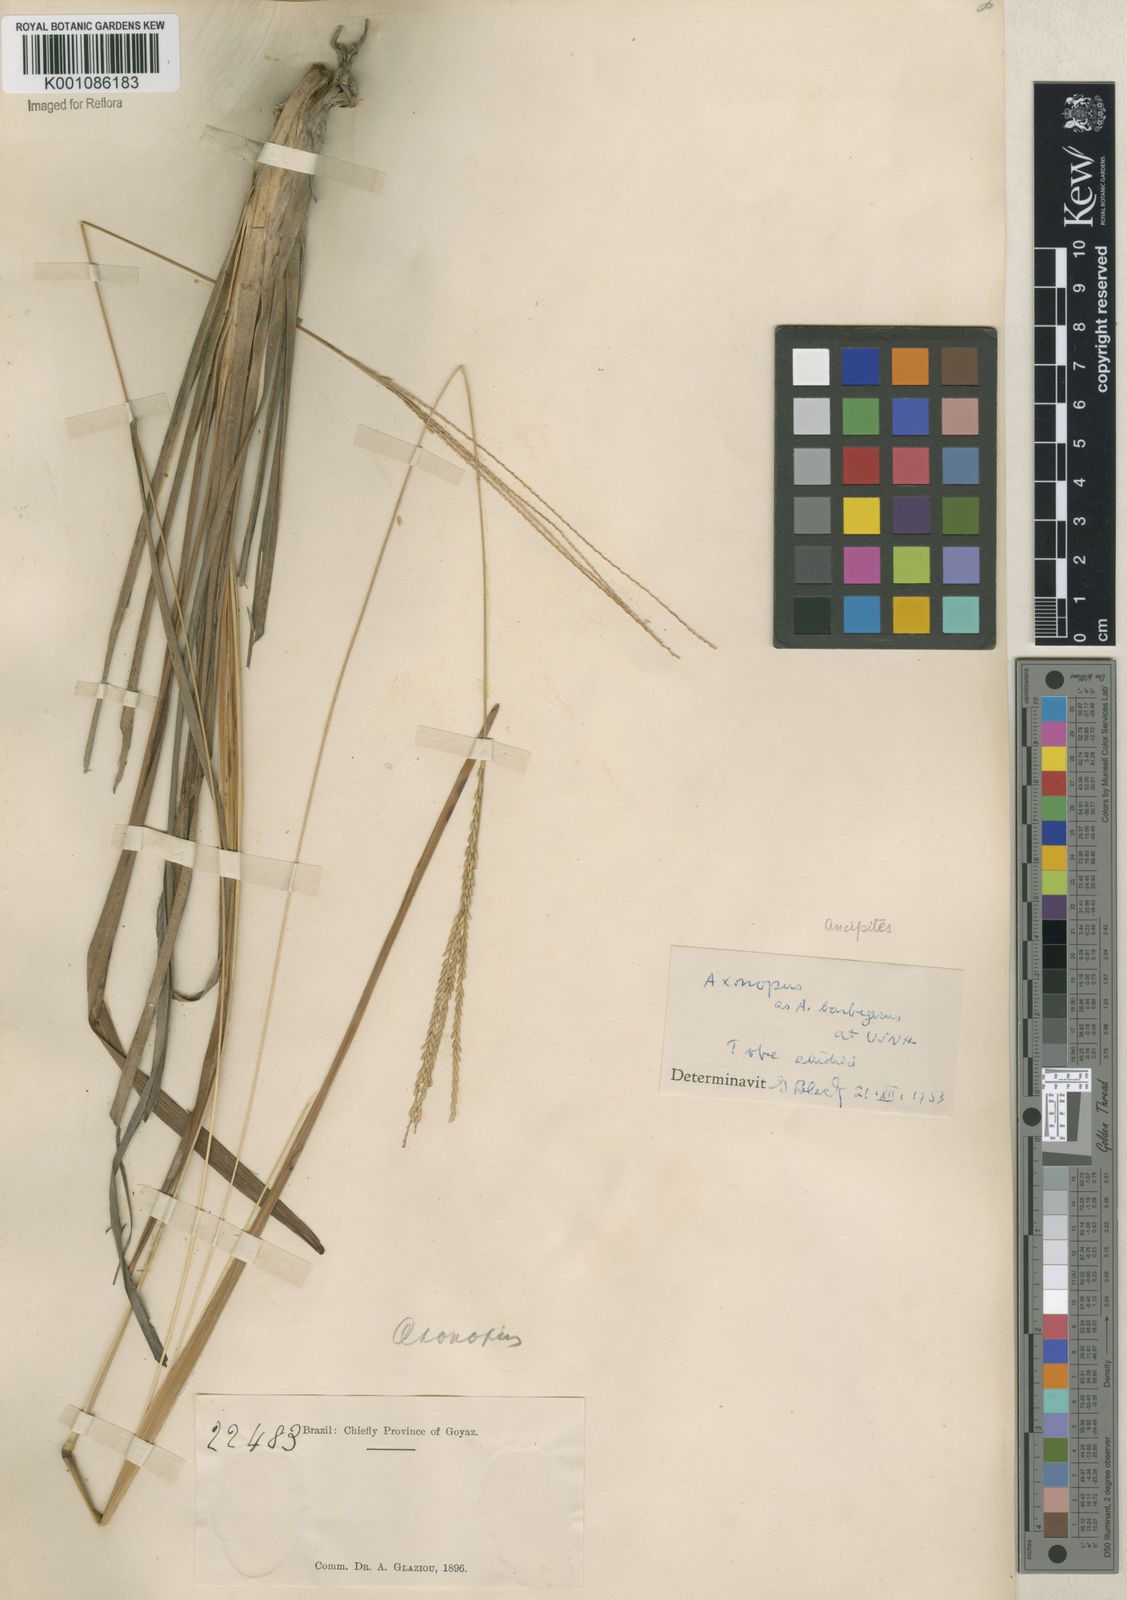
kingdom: Plantae
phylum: Tracheophyta
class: Liliopsida
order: Poales
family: Poaceae
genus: Axonopus
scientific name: Axonopus
